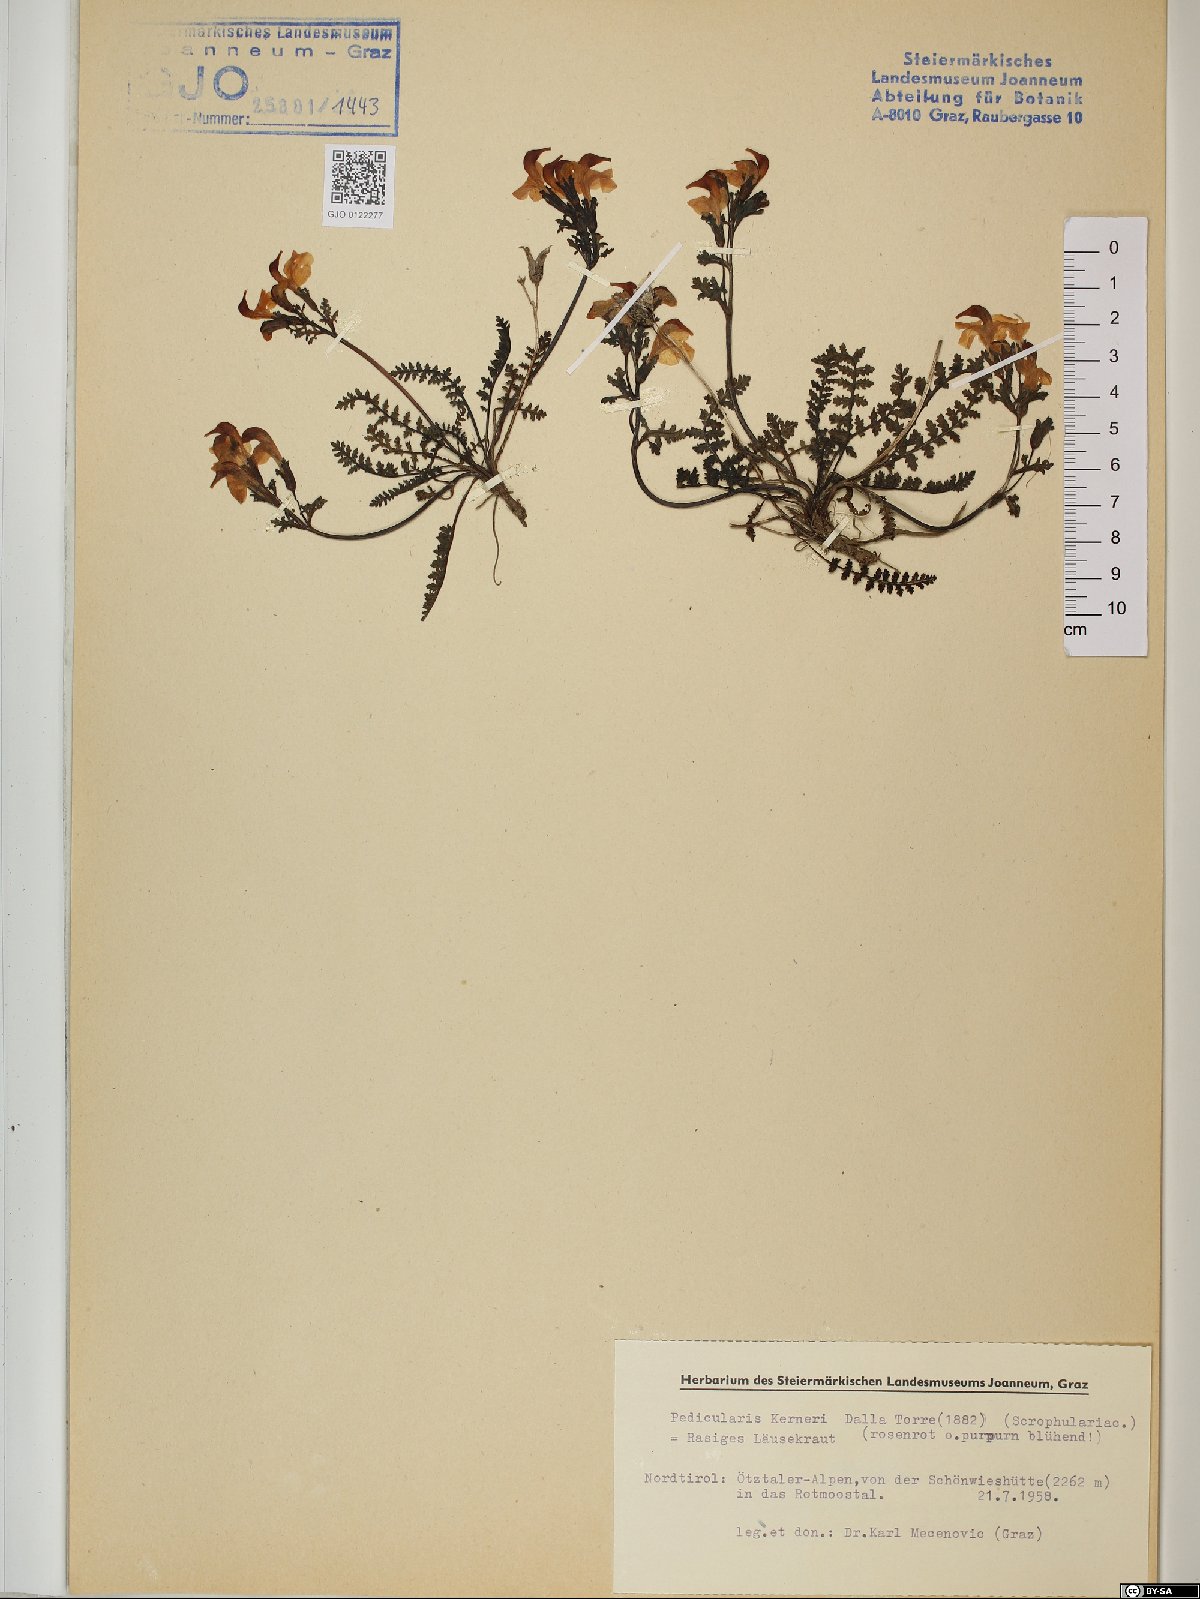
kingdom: Plantae
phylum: Tracheophyta
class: Magnoliopsida
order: Lamiales
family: Orobanchaceae
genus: Pedicularis
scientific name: Pedicularis kerneri
